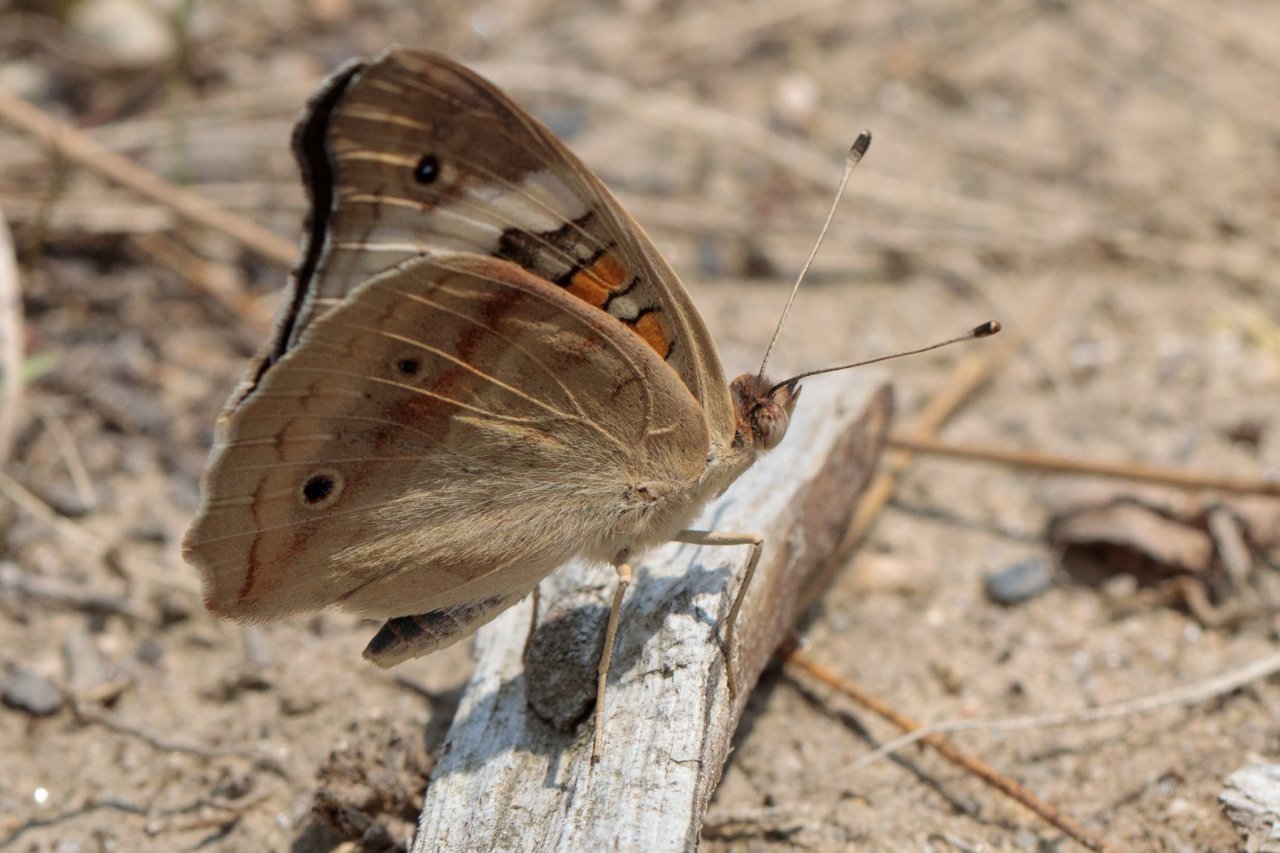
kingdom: Animalia
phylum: Arthropoda
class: Insecta
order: Lepidoptera
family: Nymphalidae
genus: Junonia
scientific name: Junonia coenia
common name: Common Buckeye
